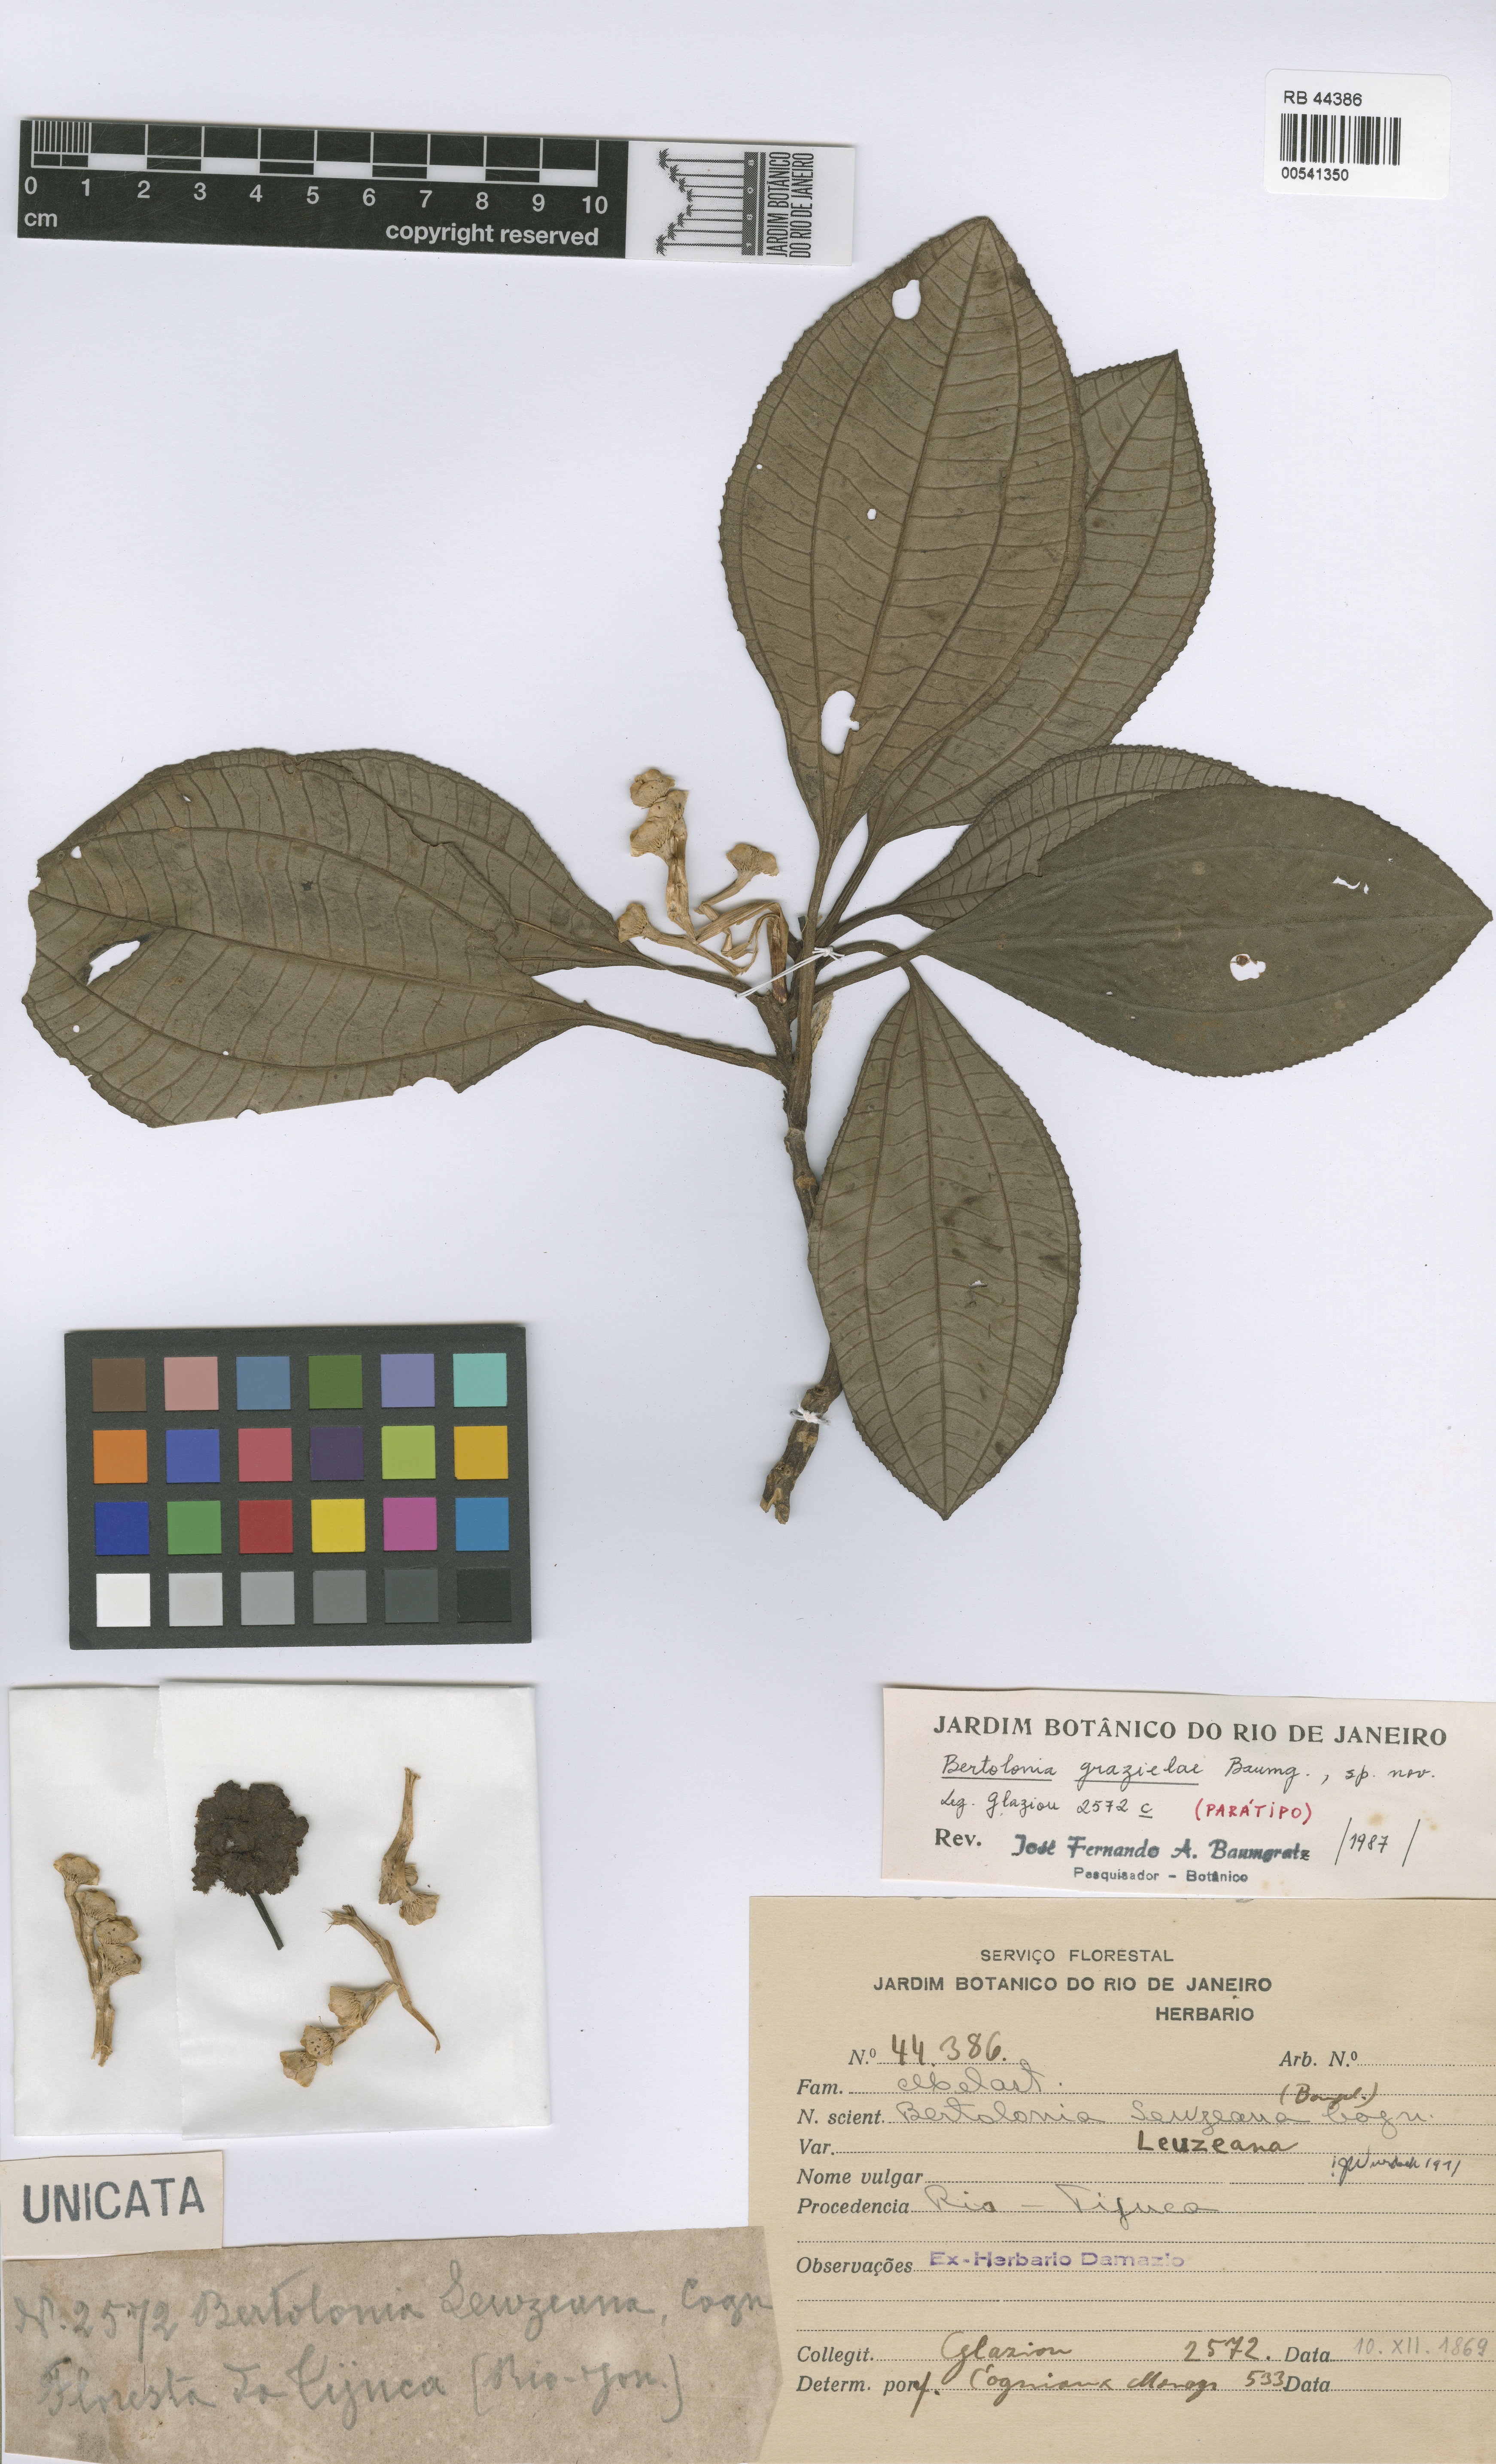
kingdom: Plantae
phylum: Tracheophyta
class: Magnoliopsida
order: Myrtales
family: Melastomataceae
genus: Bertolonia
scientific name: Bertolonia grazielae
